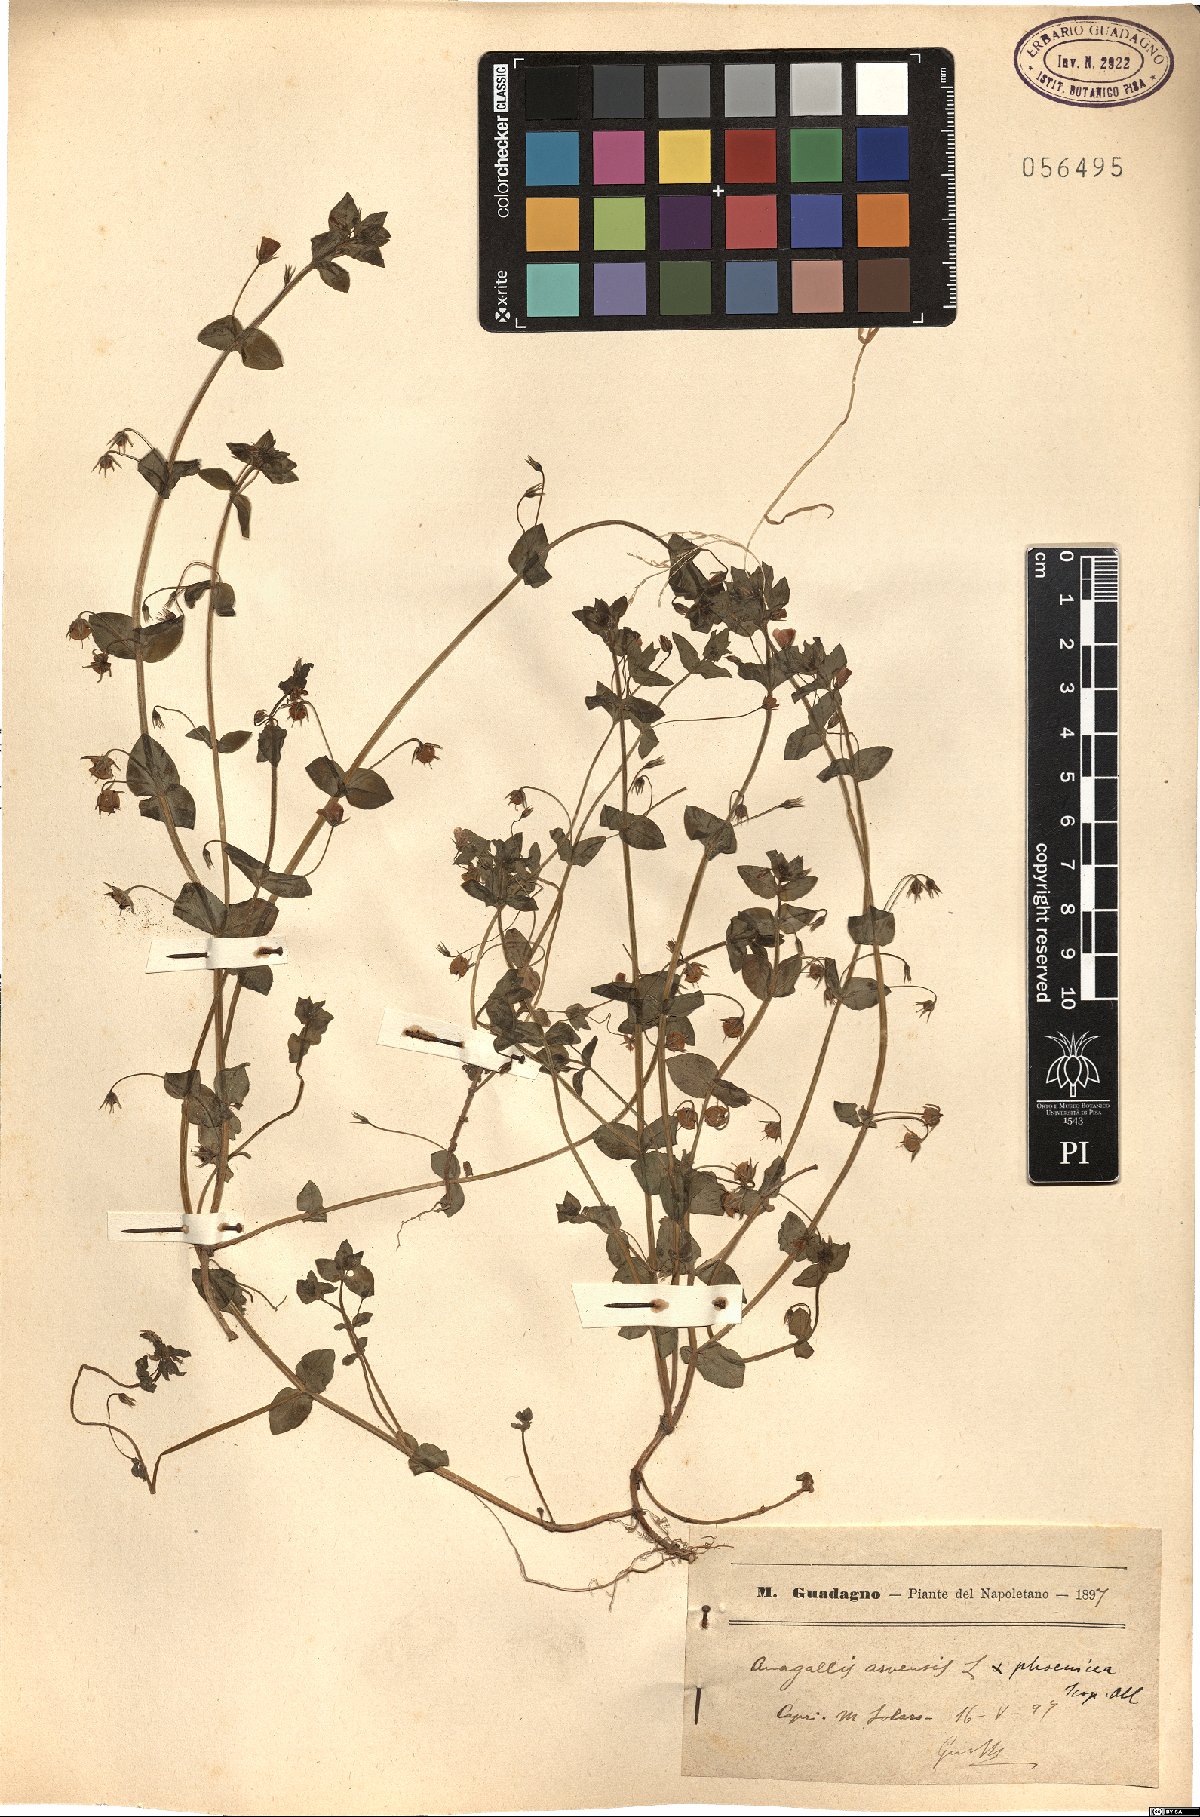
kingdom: Plantae
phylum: Tracheophyta
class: Magnoliopsida
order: Ericales
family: Primulaceae
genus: Lysimachia
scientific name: Lysimachia arvensis
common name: Scarlet pimpernel
